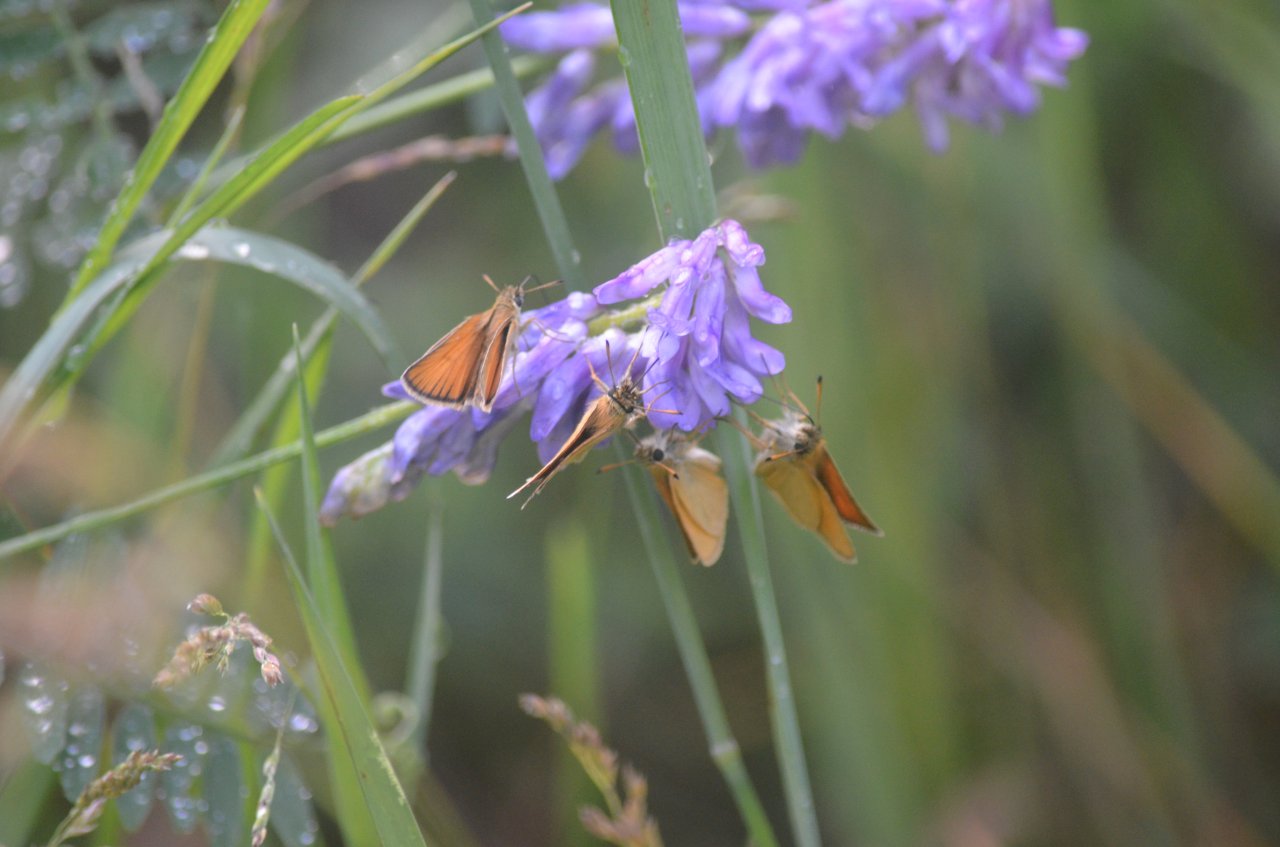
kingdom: Animalia
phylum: Arthropoda
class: Insecta
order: Lepidoptera
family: Hesperiidae
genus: Thymelicus
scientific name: Thymelicus lineola
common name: European Skipper
